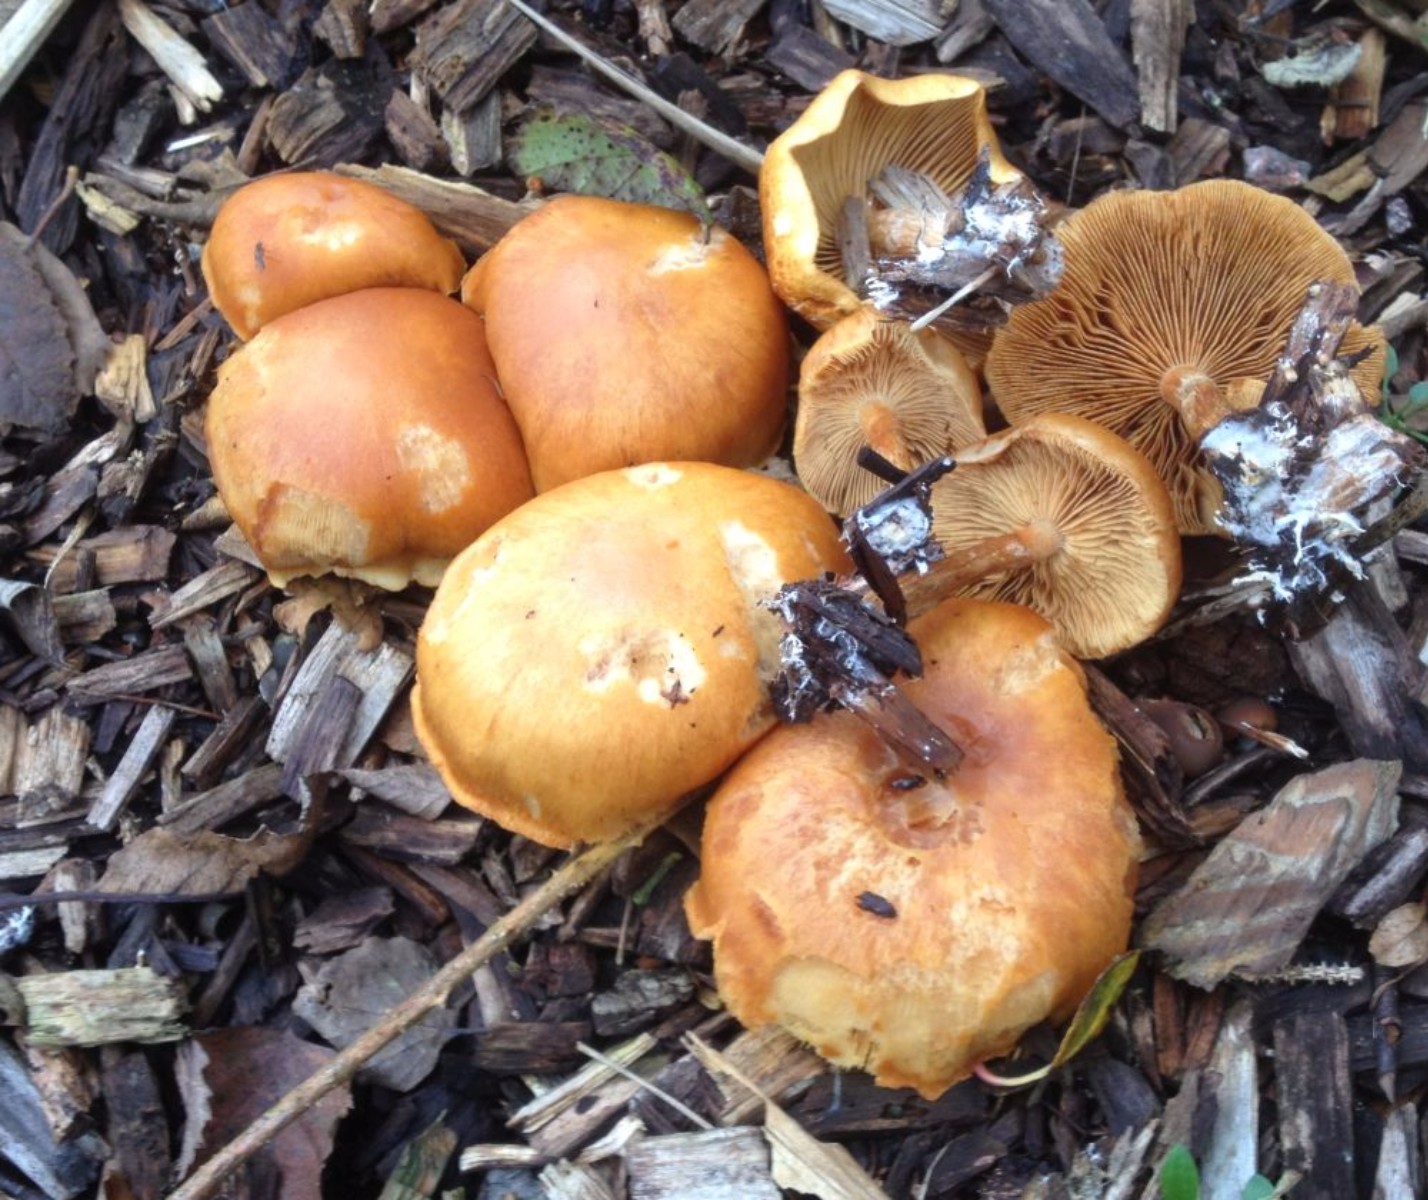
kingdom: Fungi
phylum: Basidiomycota
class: Agaricomycetes
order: Agaricales
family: Hymenogastraceae
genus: Gymnopilus
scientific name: Gymnopilus penetrans
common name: plettet flammehat
